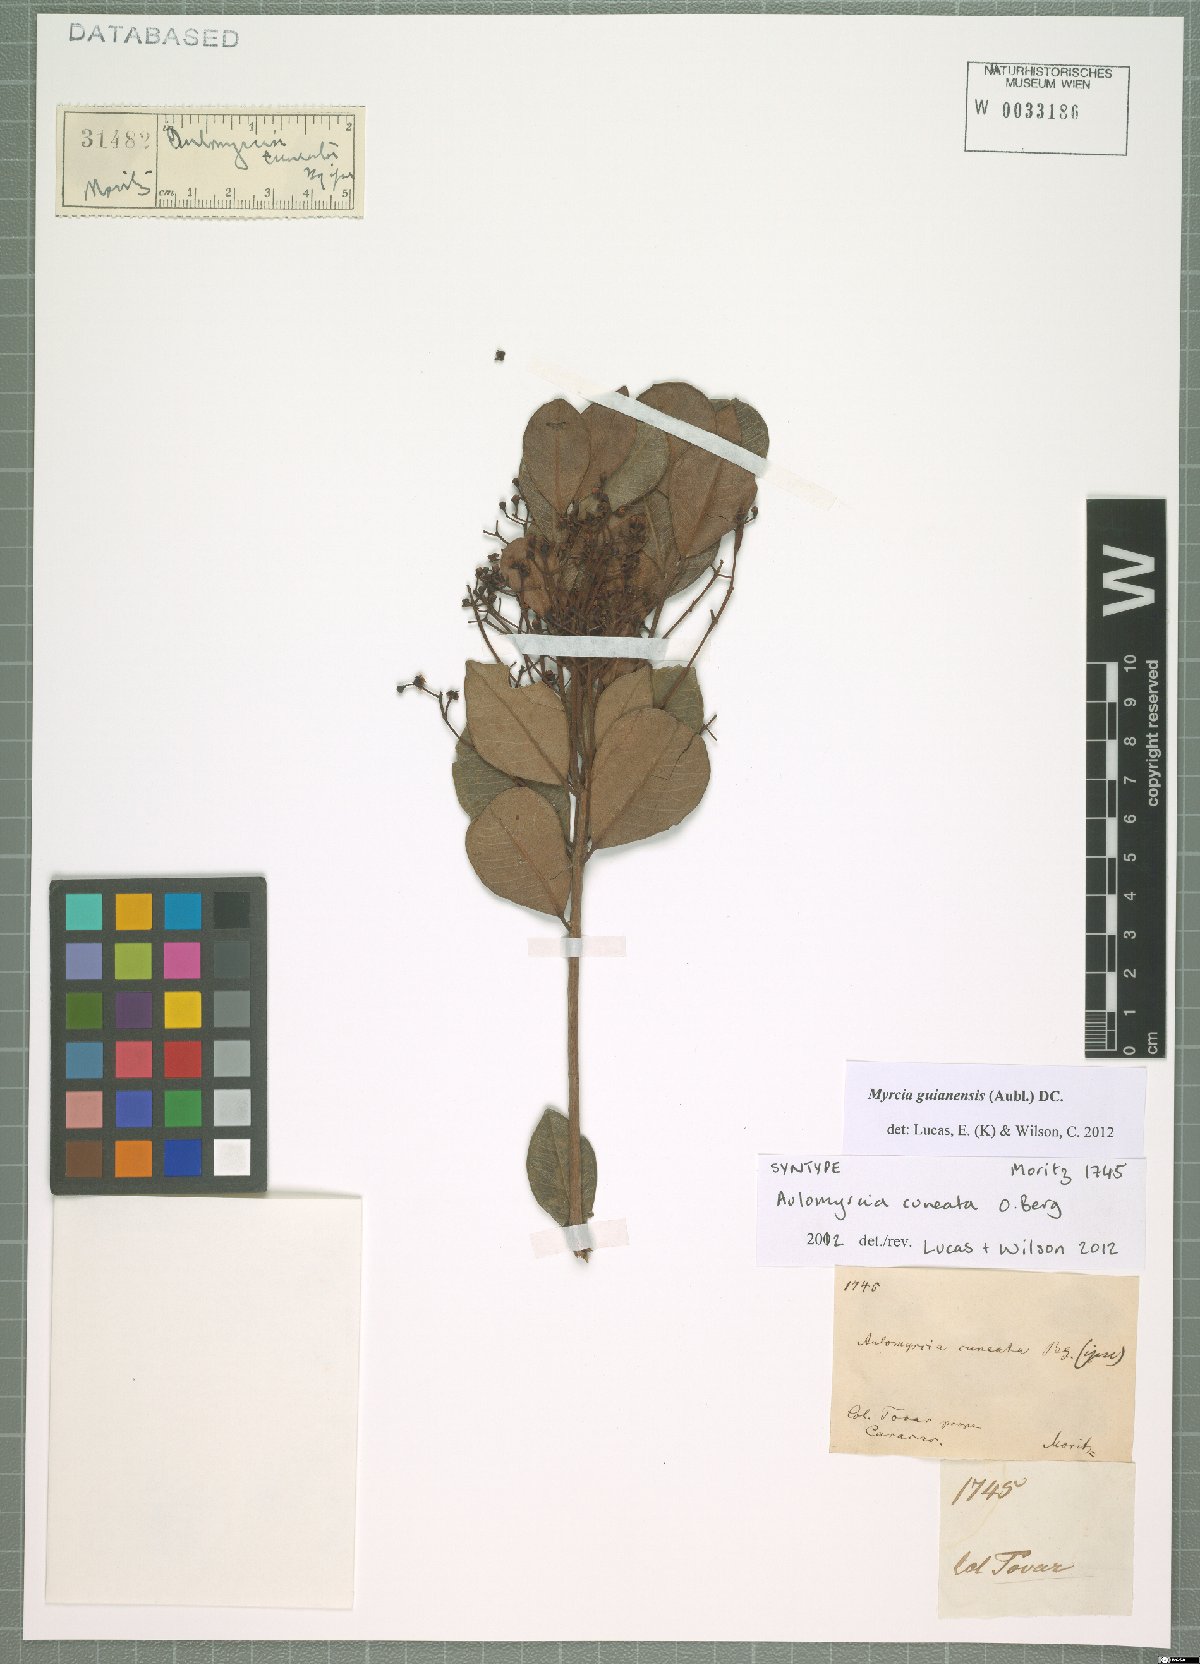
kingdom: Plantae
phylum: Tracheophyta
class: Magnoliopsida
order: Myrtales
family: Myrtaceae
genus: Myrcia
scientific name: Myrcia guianensis
